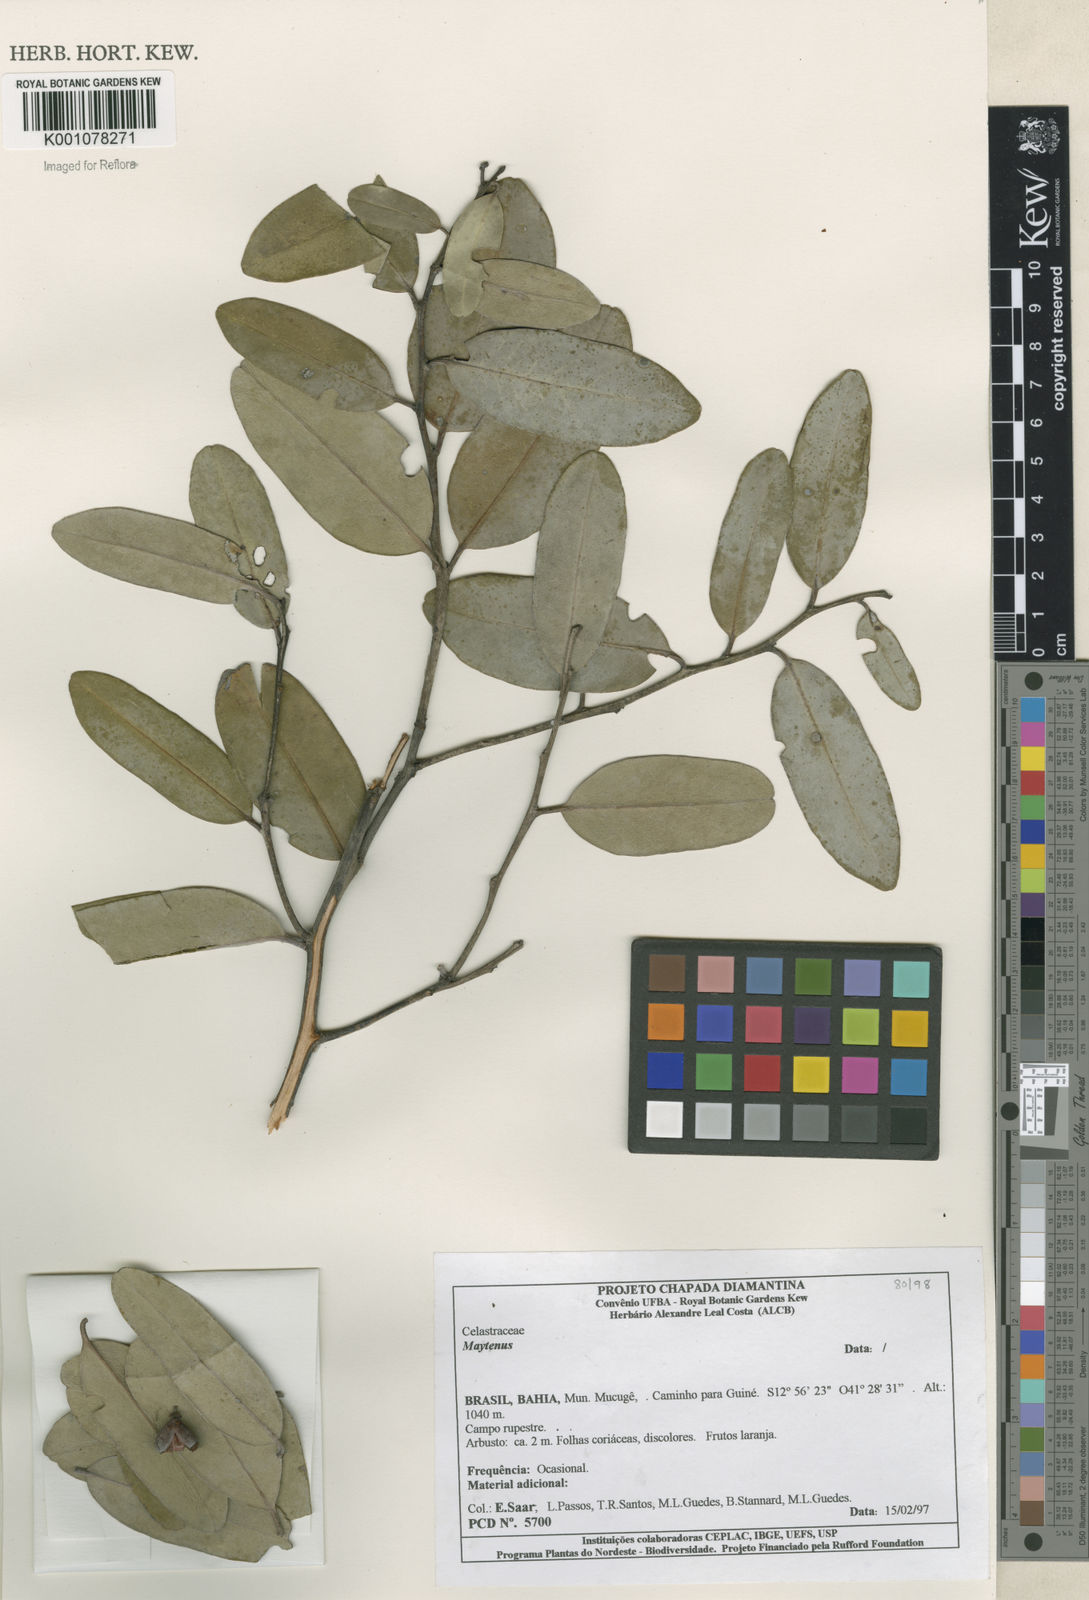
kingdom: Plantae
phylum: Tracheophyta
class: Magnoliopsida
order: Celastrales
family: Celastraceae
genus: Maytenus
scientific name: Maytenus
